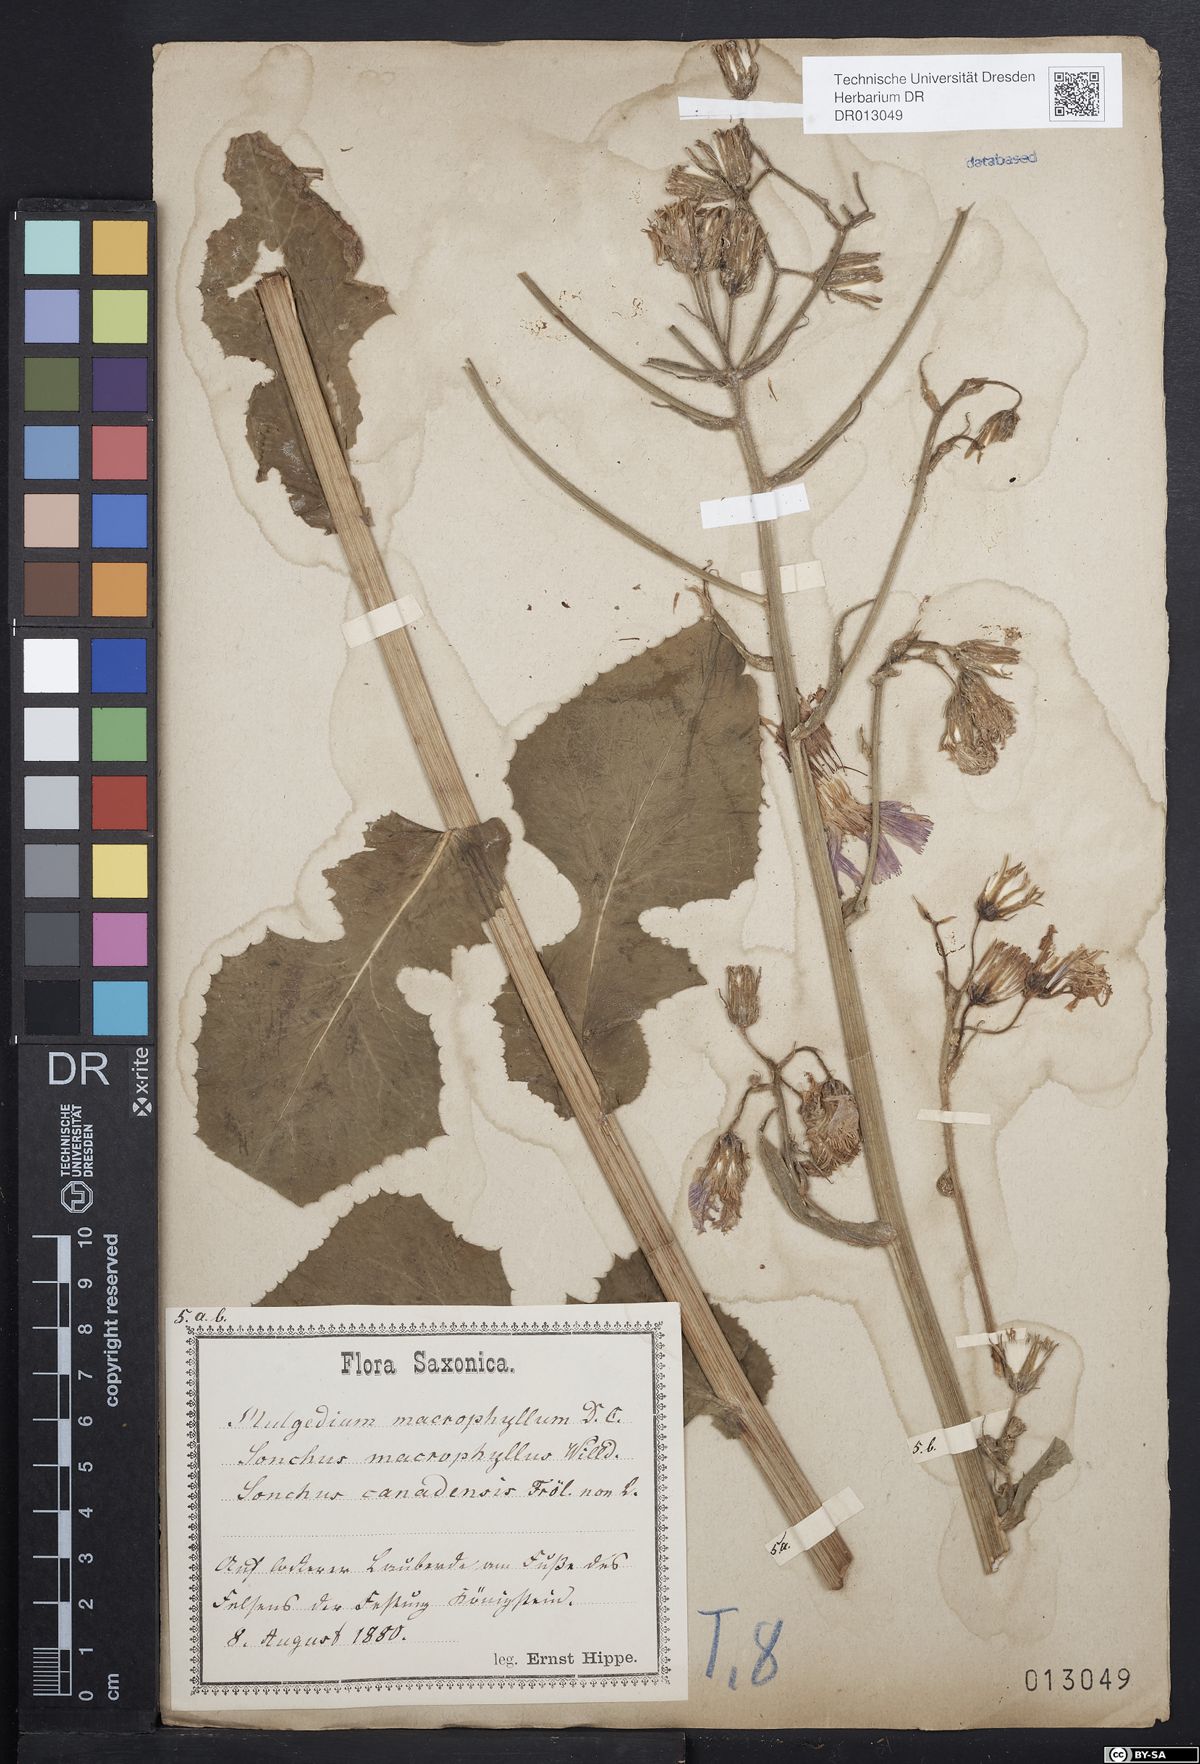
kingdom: Plantae
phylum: Tracheophyta
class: Magnoliopsida
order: Asterales
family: Asteraceae
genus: Lactuca
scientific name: Lactuca macrophylla
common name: Common blue-sow-thistle
